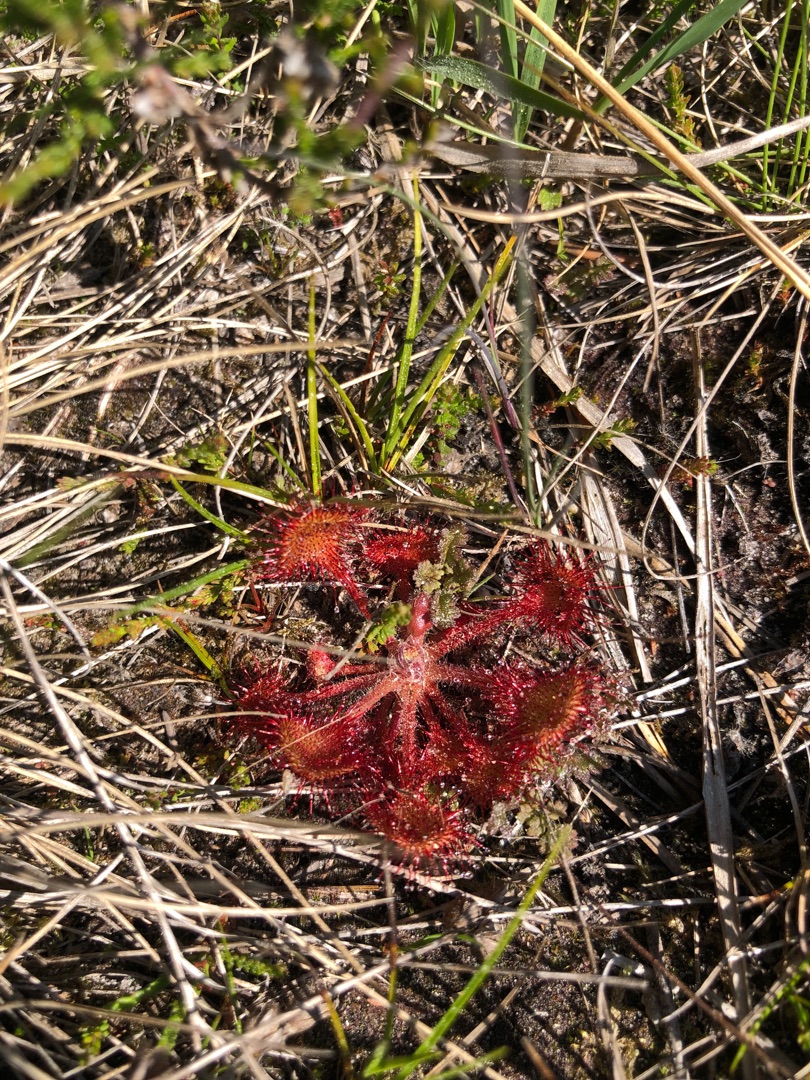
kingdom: Plantae
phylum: Tracheophyta
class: Magnoliopsida
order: Caryophyllales
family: Droseraceae
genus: Drosera
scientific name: Drosera rotundifolia
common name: Rundbladet soldug
